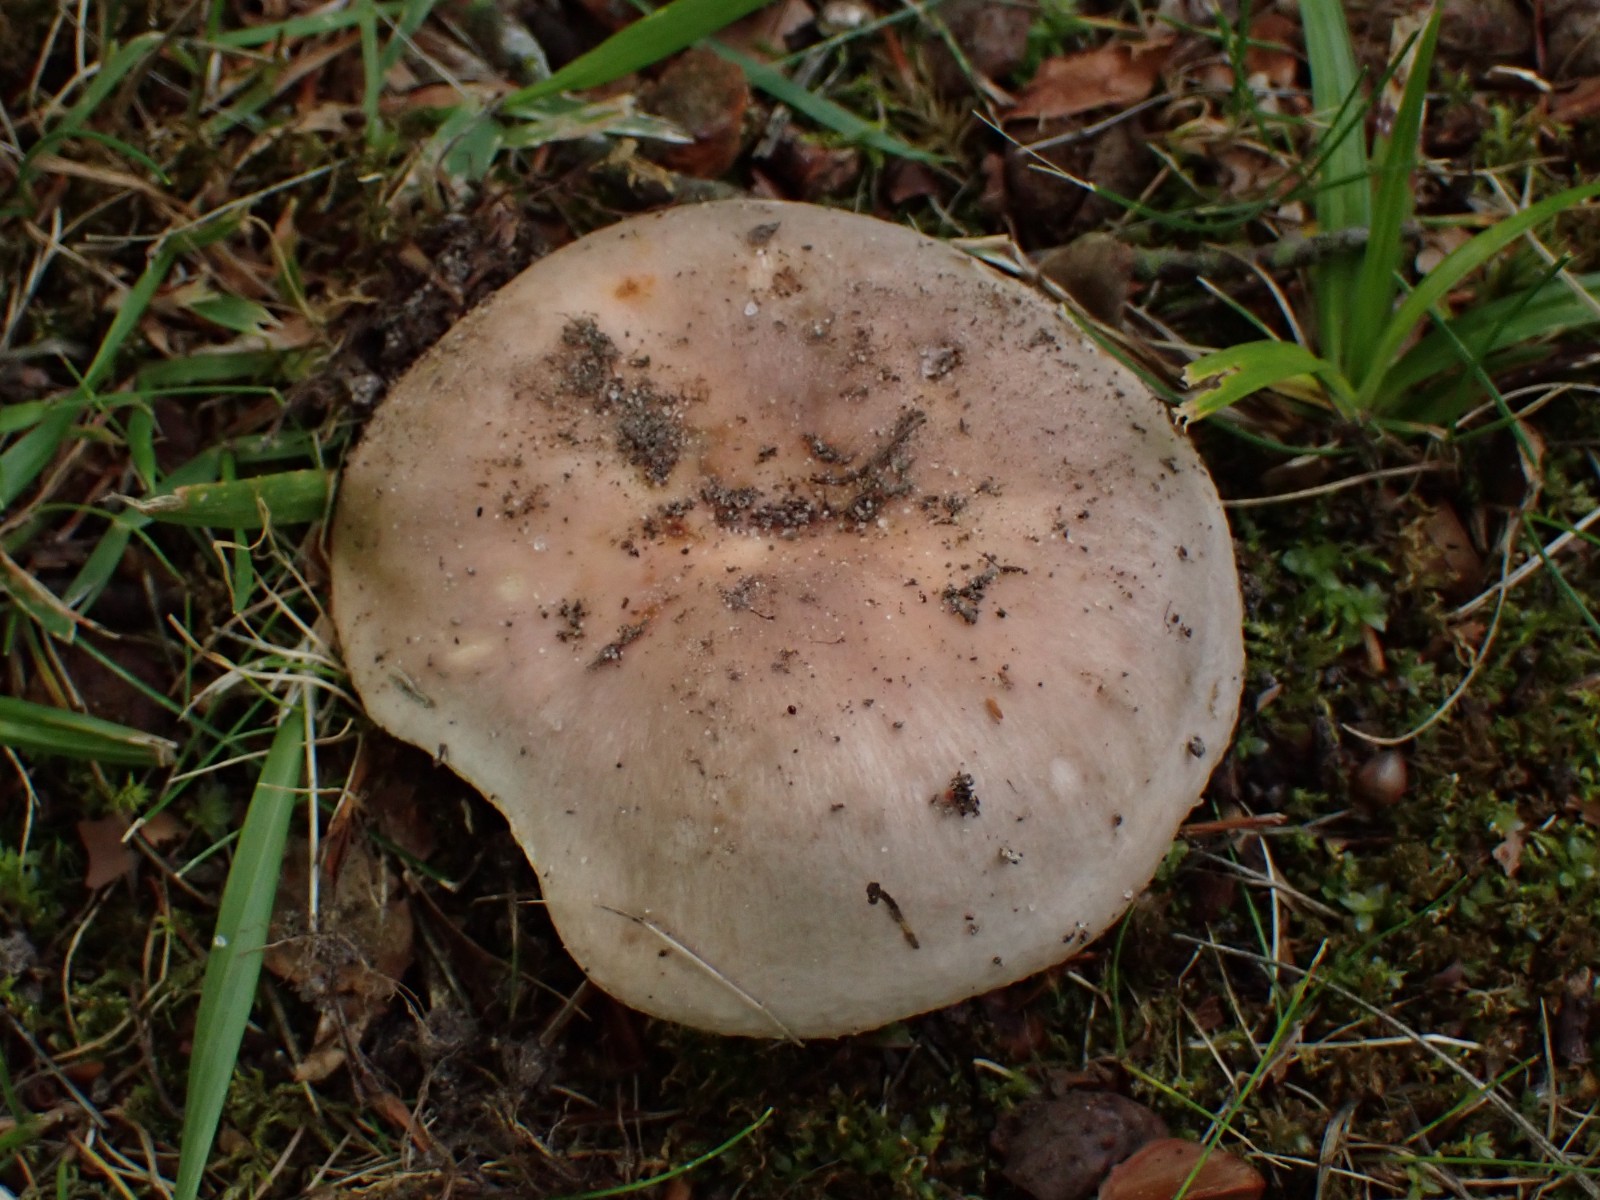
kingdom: Fungi
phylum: Basidiomycota
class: Agaricomycetes
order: Russulales
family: Russulaceae
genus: Russula
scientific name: Russula vesca
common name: spiselig skørhat
